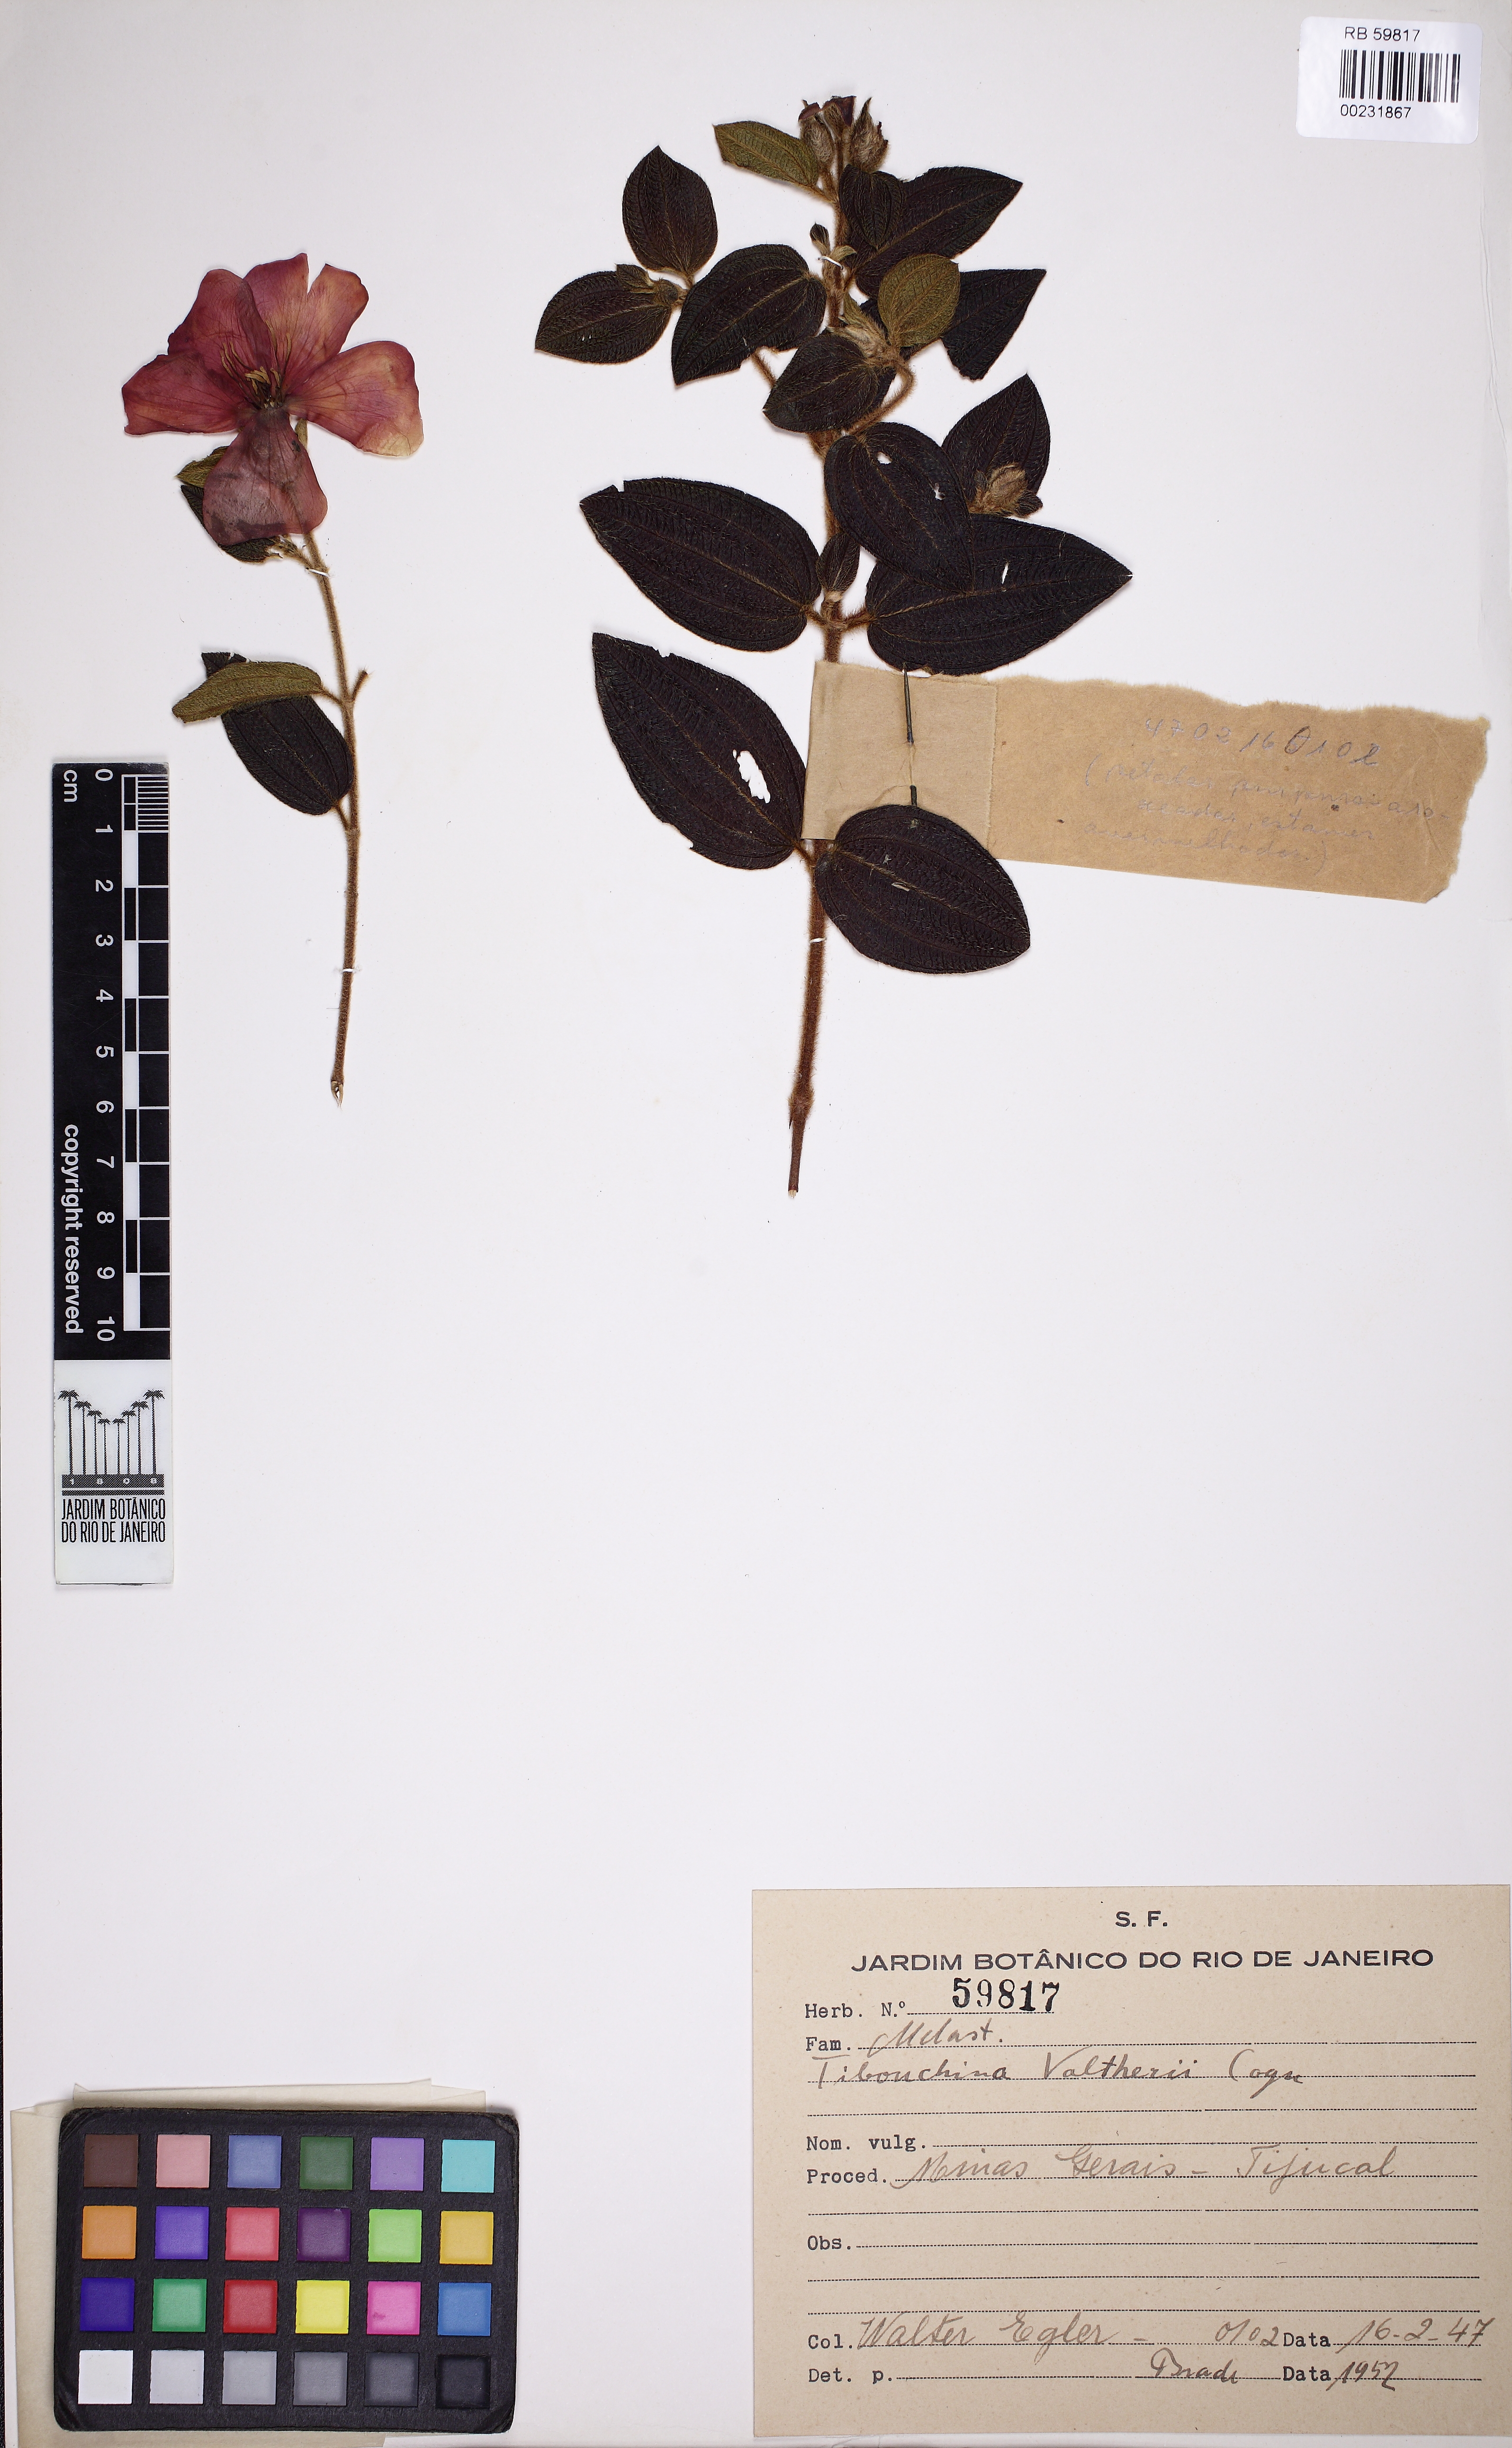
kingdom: Plantae
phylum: Tracheophyta
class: Magnoliopsida
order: Myrtales
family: Melastomataceae
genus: Pleroma
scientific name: Pleroma aemula
